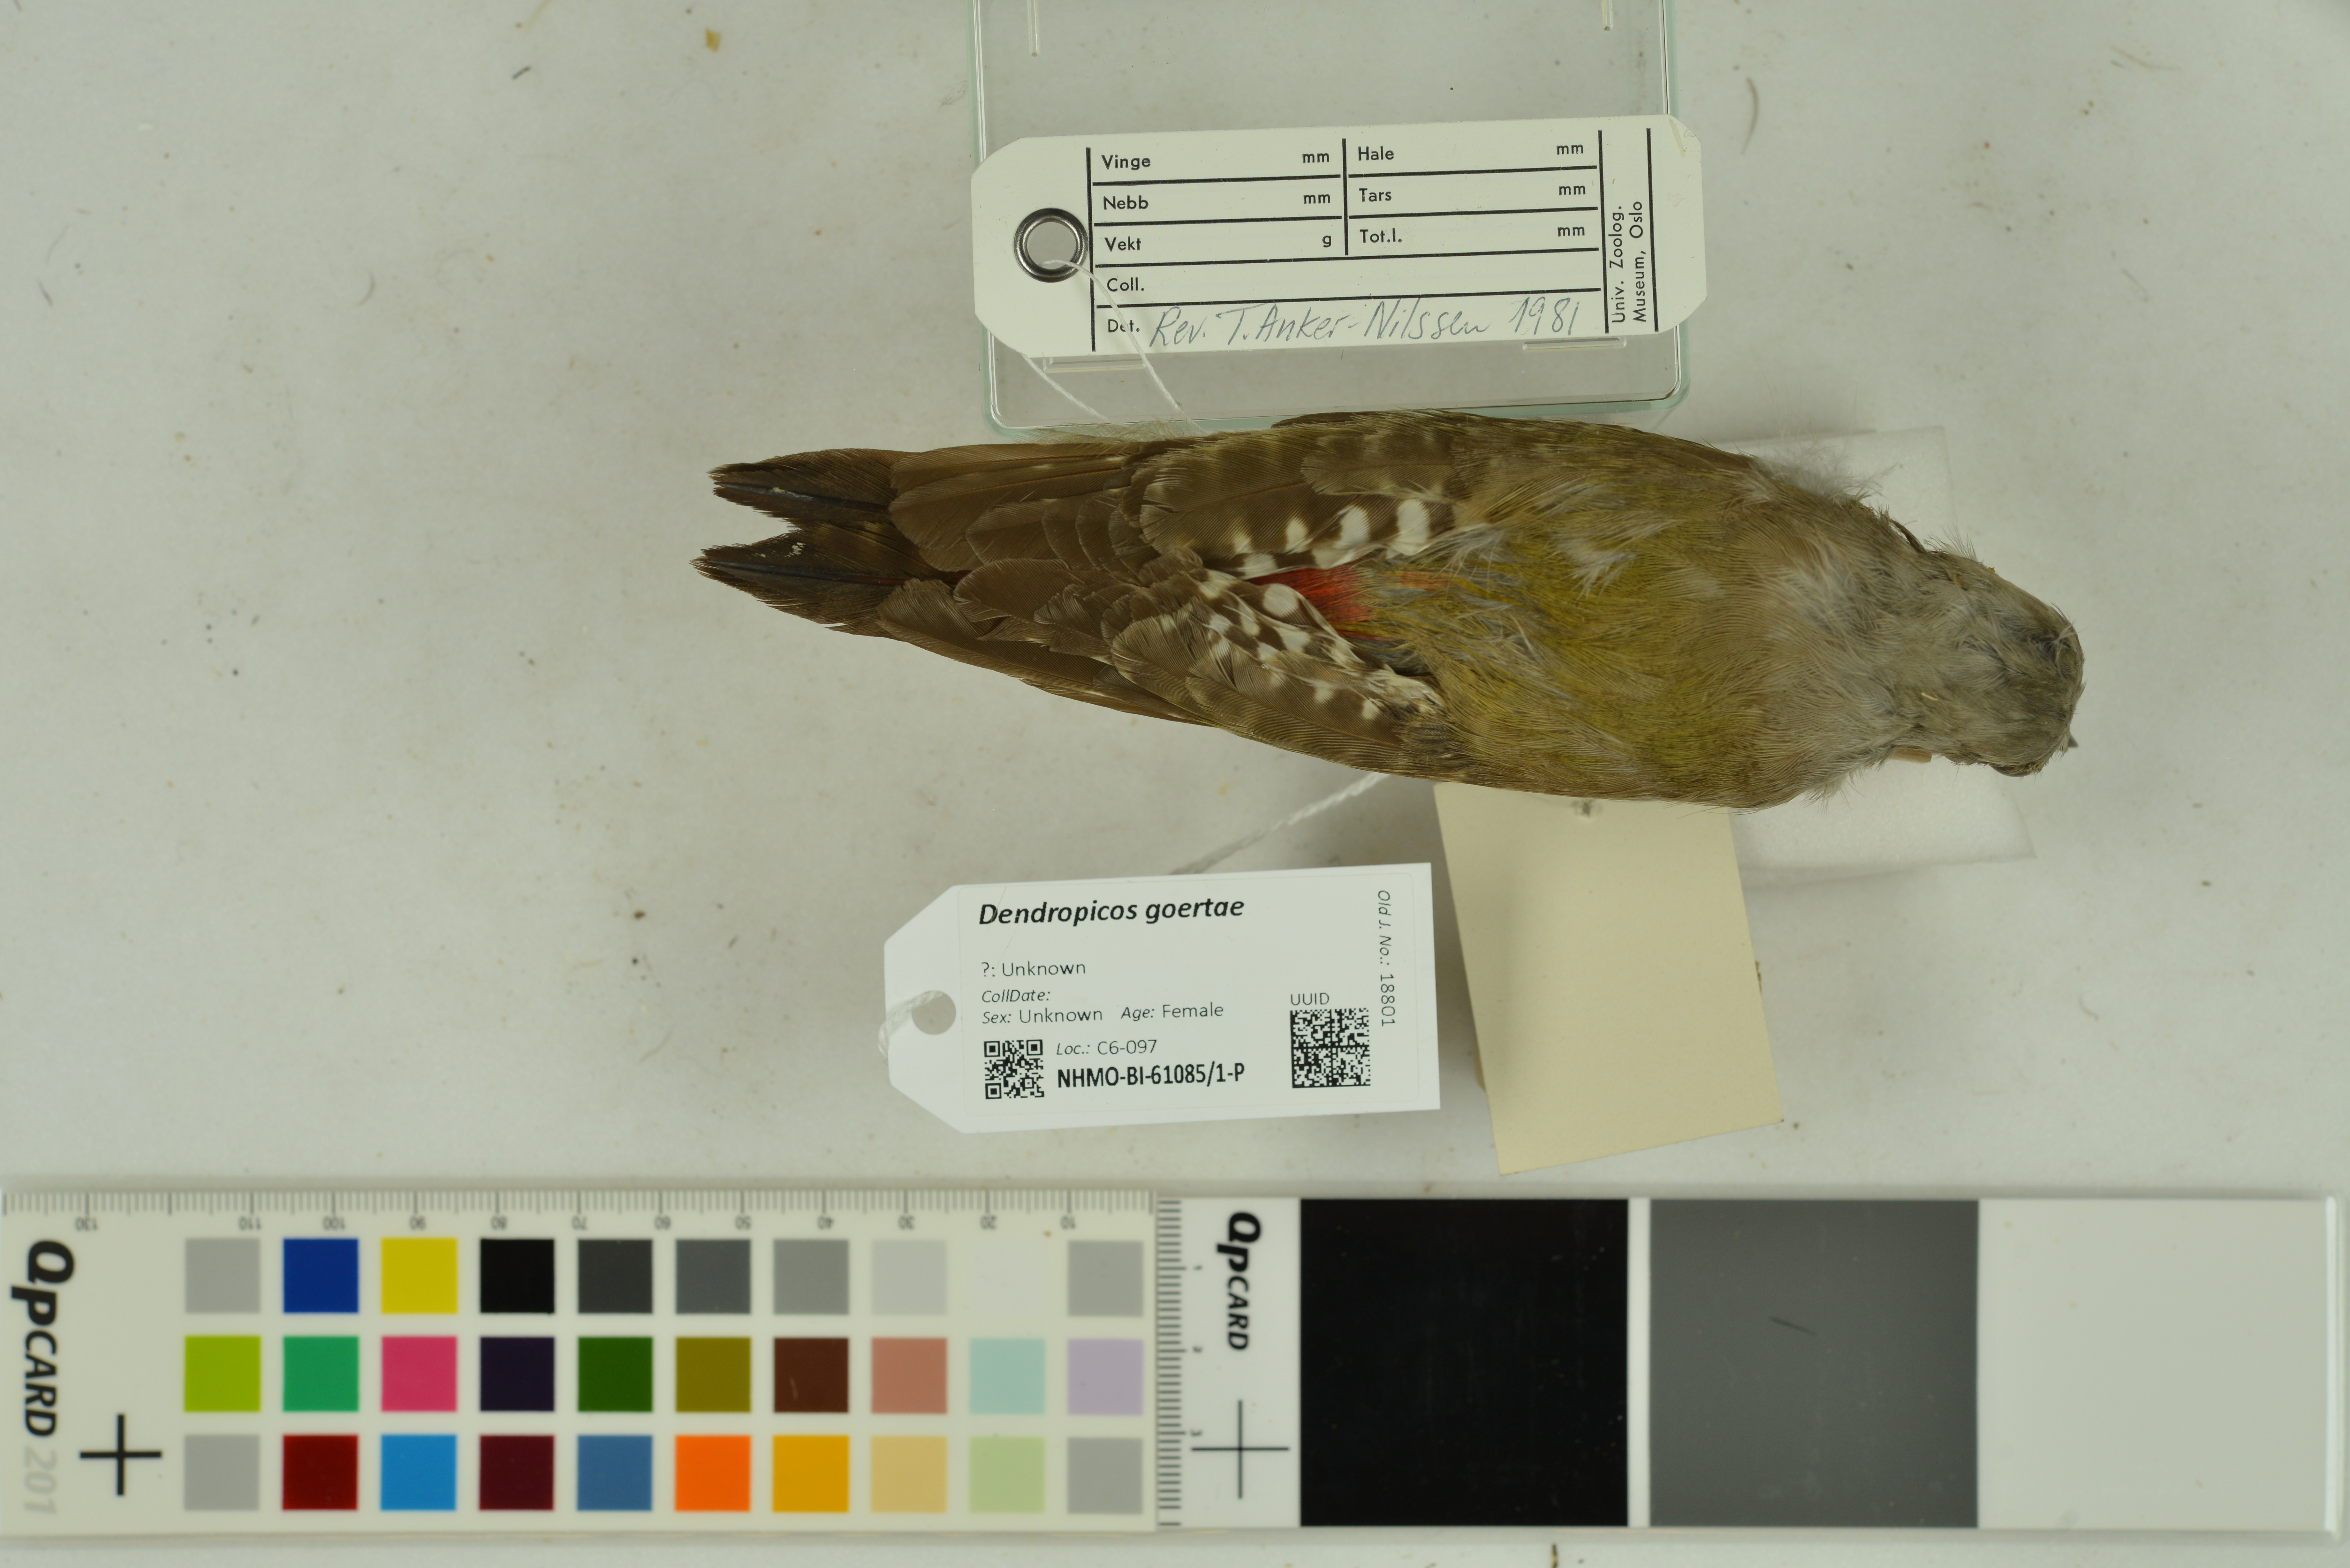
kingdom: Animalia
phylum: Chordata
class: Aves
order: Piciformes
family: Picidae
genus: Dendropicos
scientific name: Dendropicos goertae
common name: African grey woodpecker
